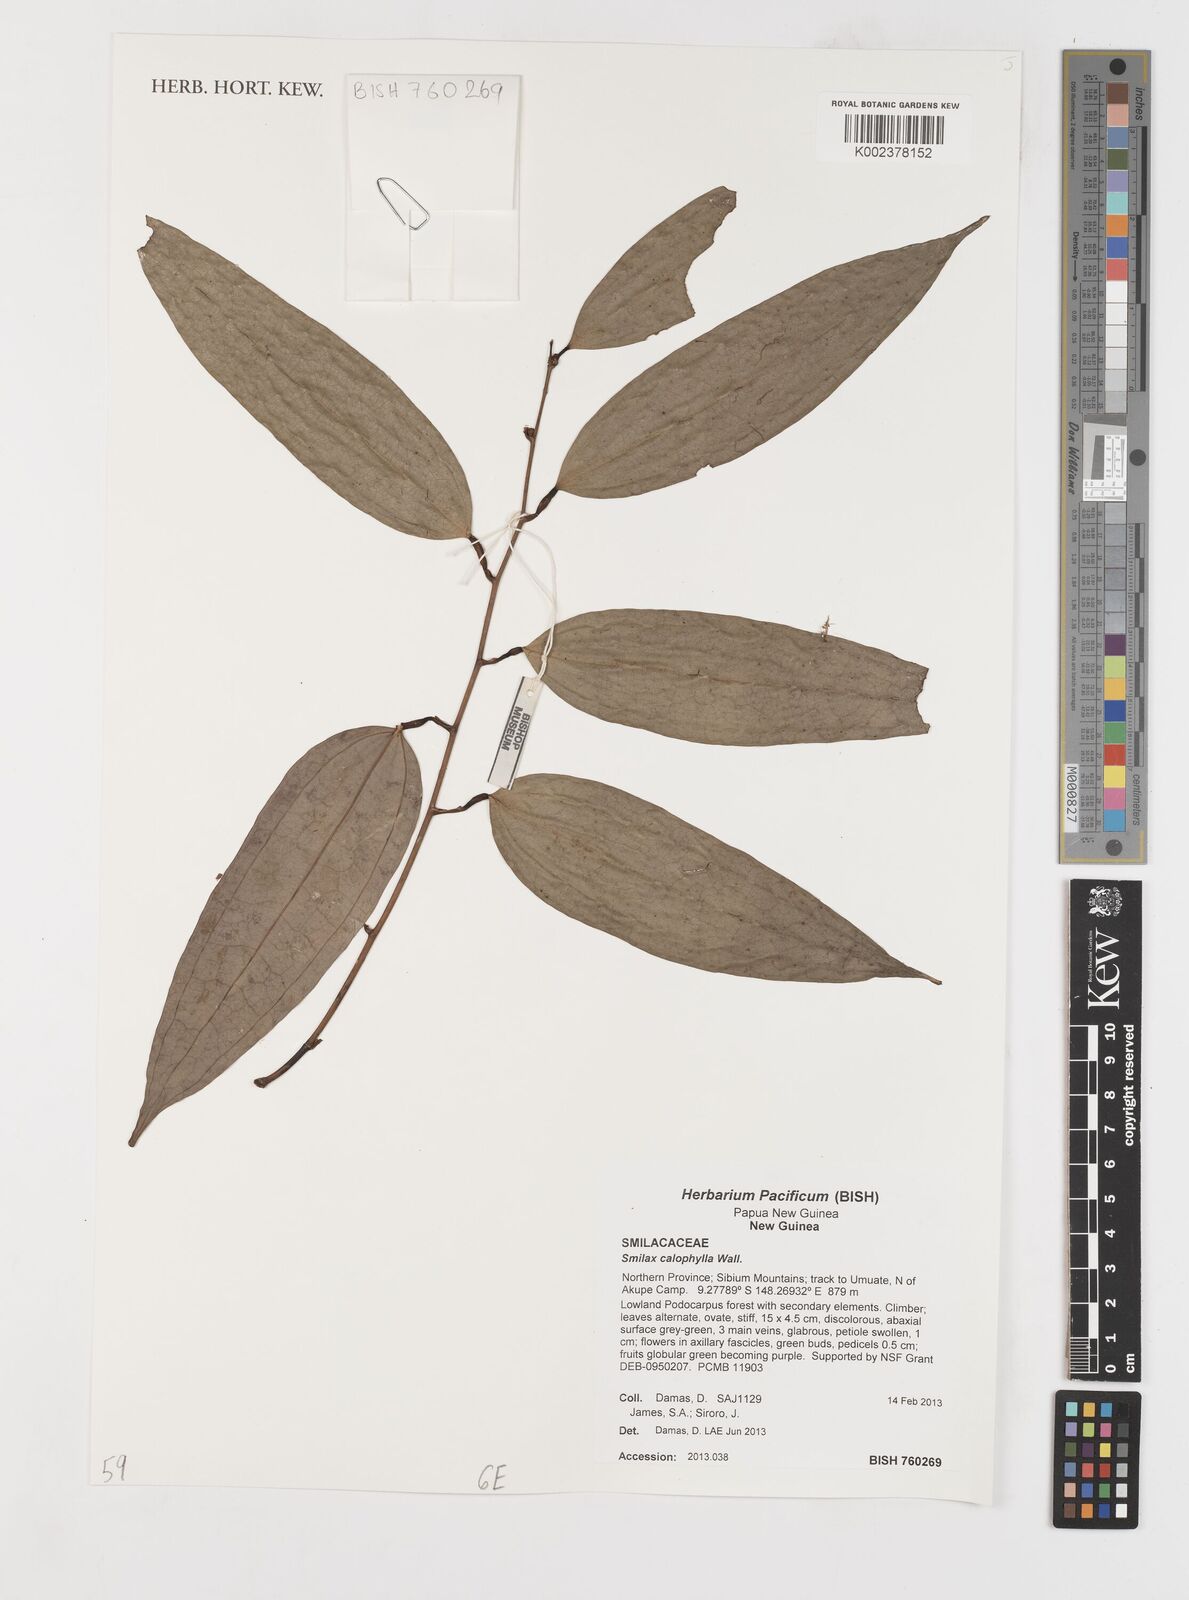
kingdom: Plantae
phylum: Tracheophyta
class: Liliopsida
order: Liliales
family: Smilacaceae
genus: Smilax
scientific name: Smilax calophylla
